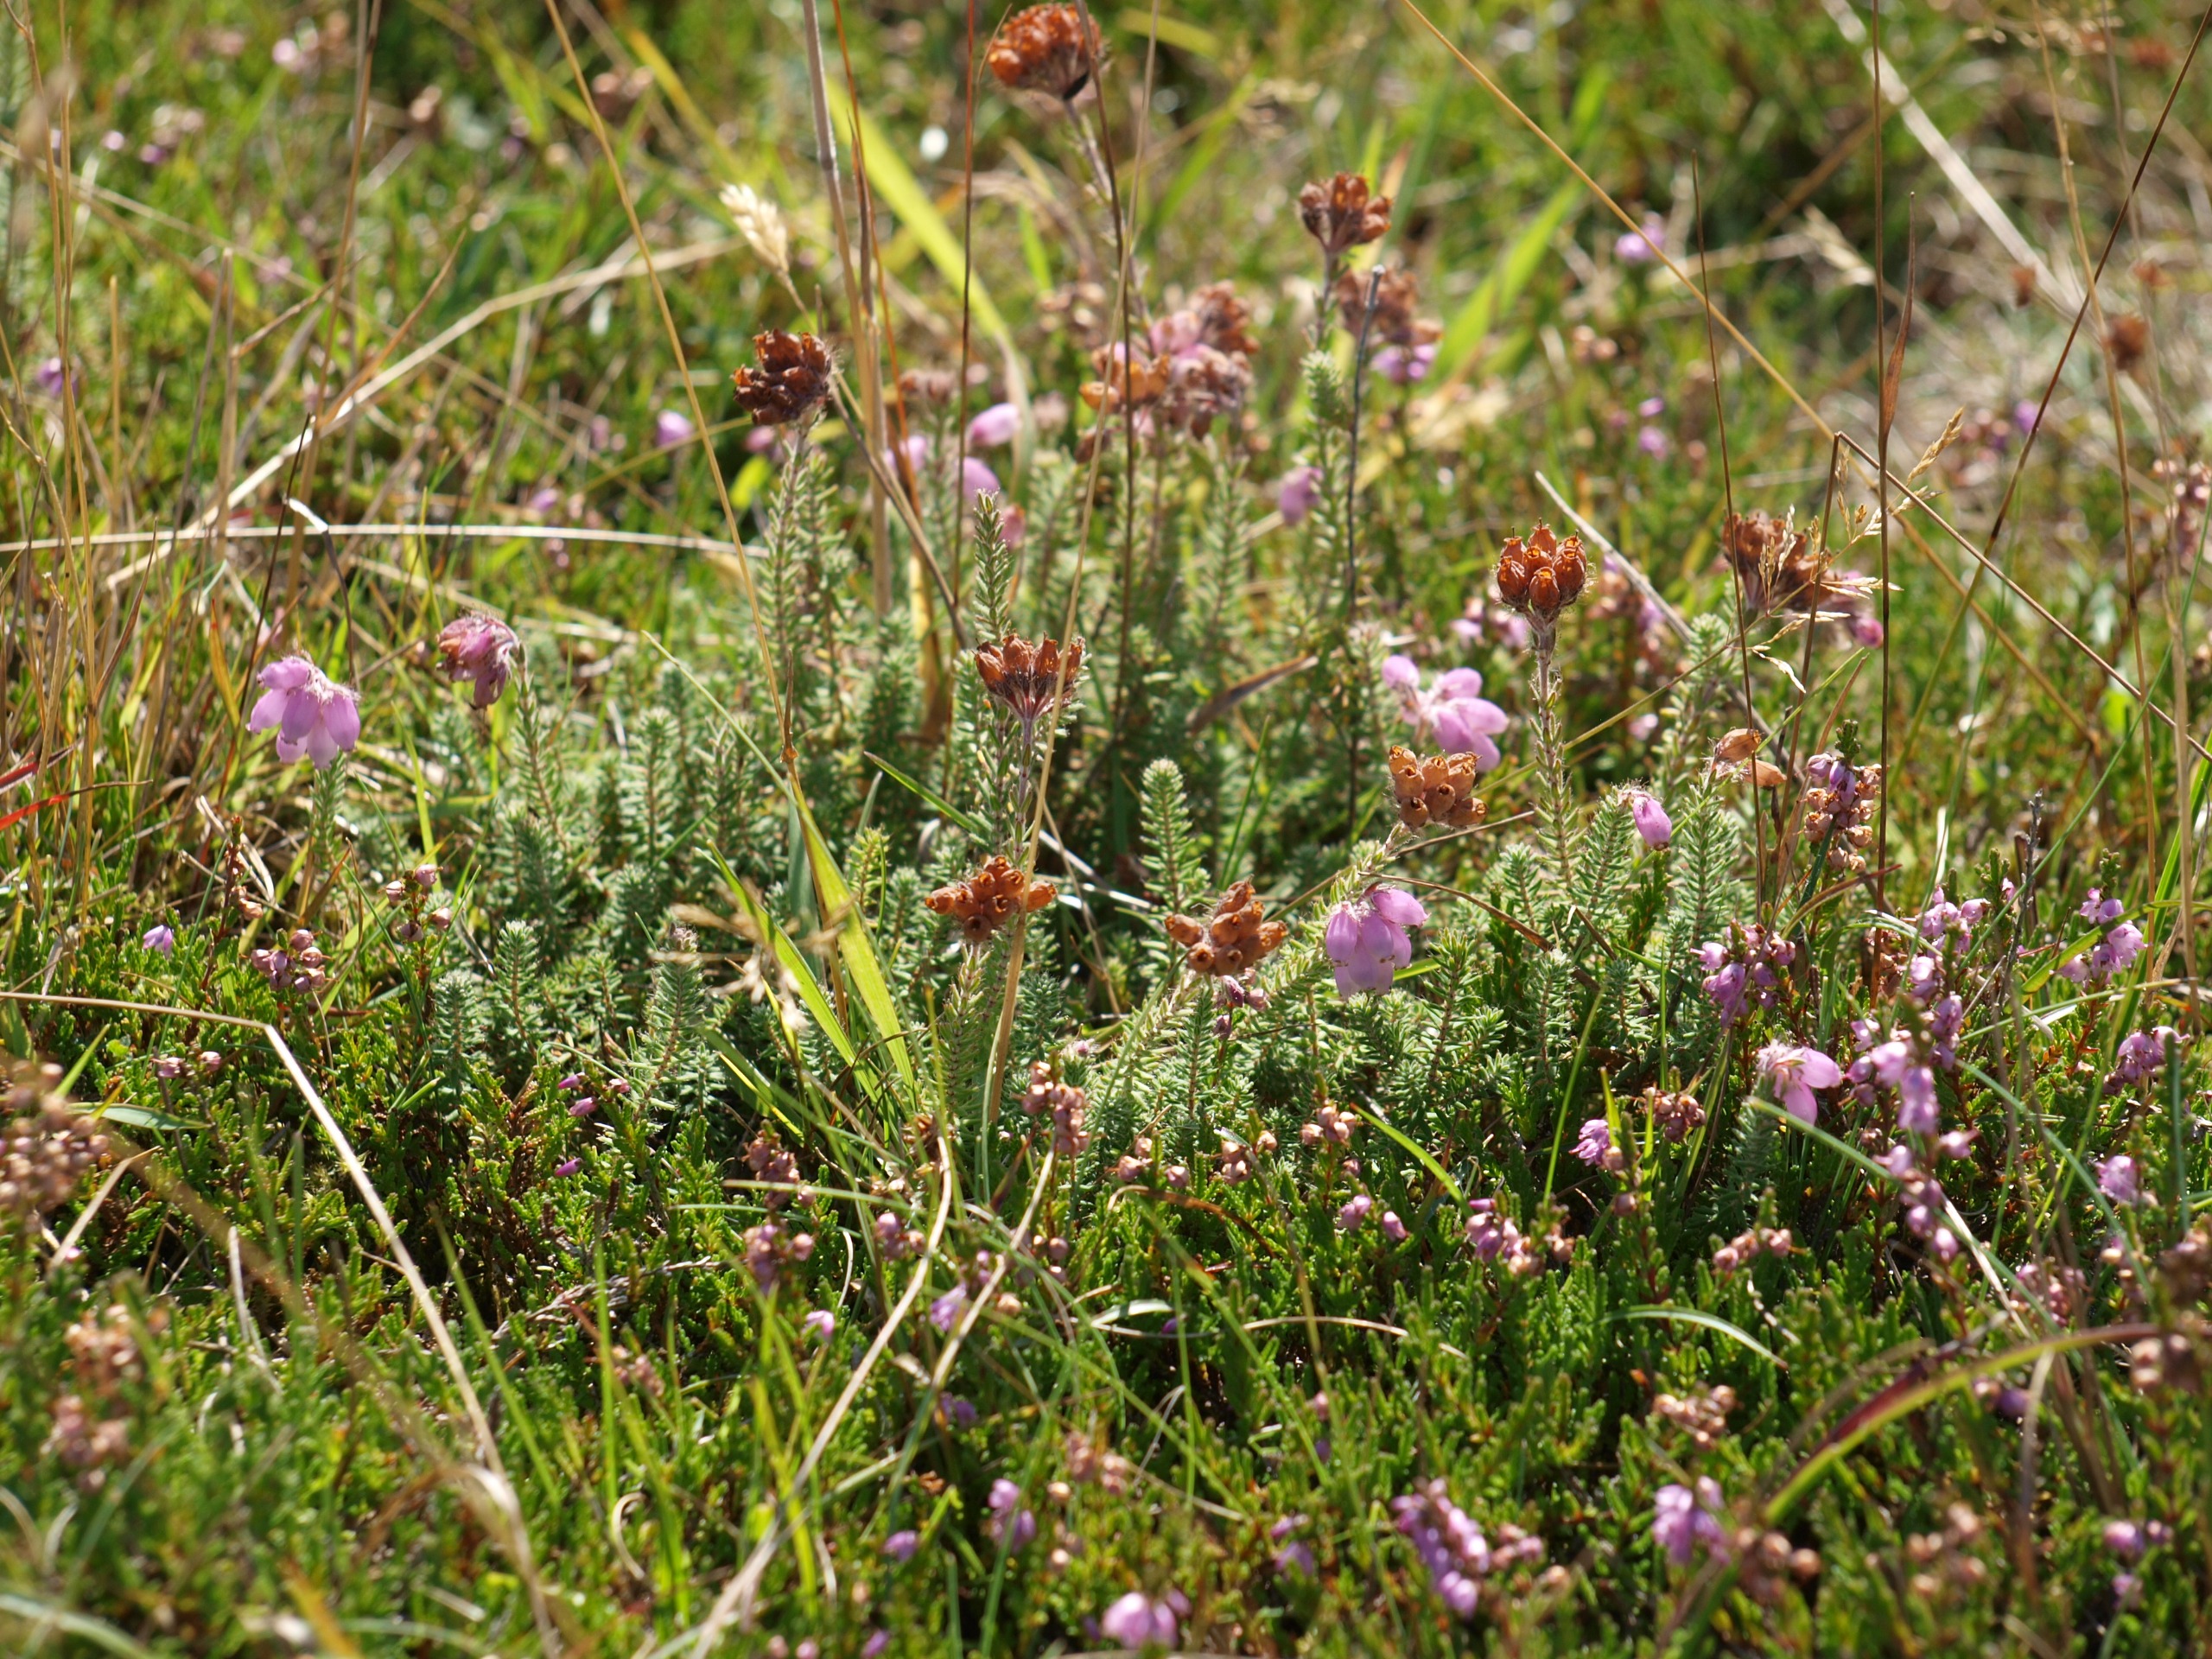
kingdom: Plantae
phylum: Tracheophyta
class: Magnoliopsida
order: Ericales
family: Ericaceae
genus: Erica
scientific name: Erica tetralix
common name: Klokkelyng
